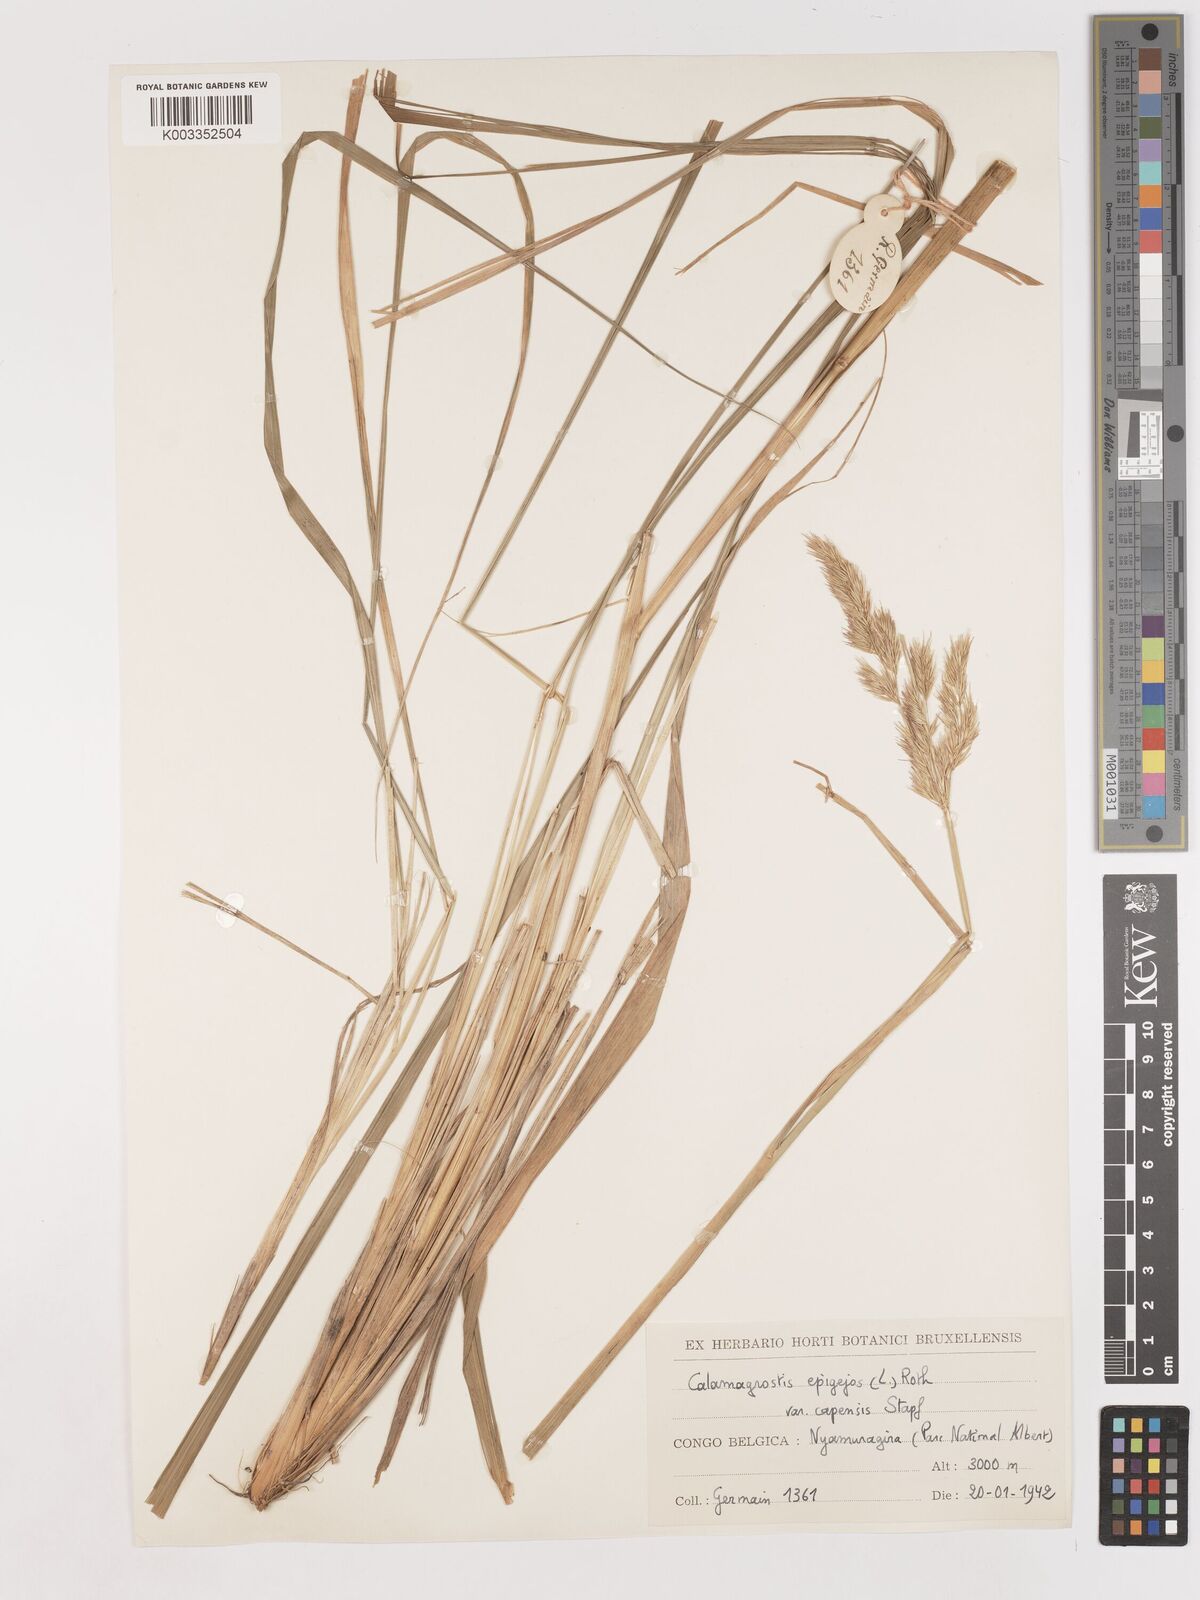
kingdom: Plantae
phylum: Tracheophyta
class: Liliopsida
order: Poales
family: Poaceae
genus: Calamagrostis
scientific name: Calamagrostis epigejos
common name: Wood small-reed
